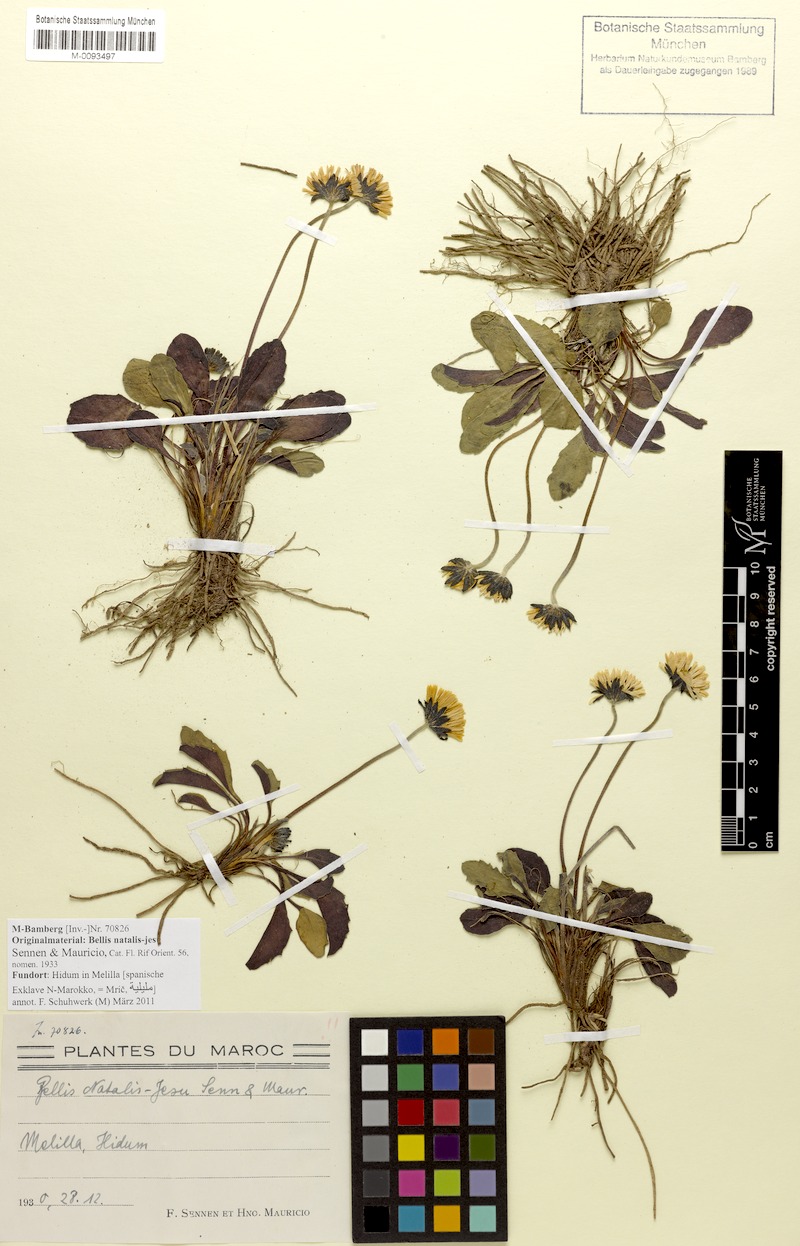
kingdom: Plantae
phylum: Tracheophyta
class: Magnoliopsida
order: Asterales
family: Asteraceae
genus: Bellis
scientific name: Bellis sylvestris
